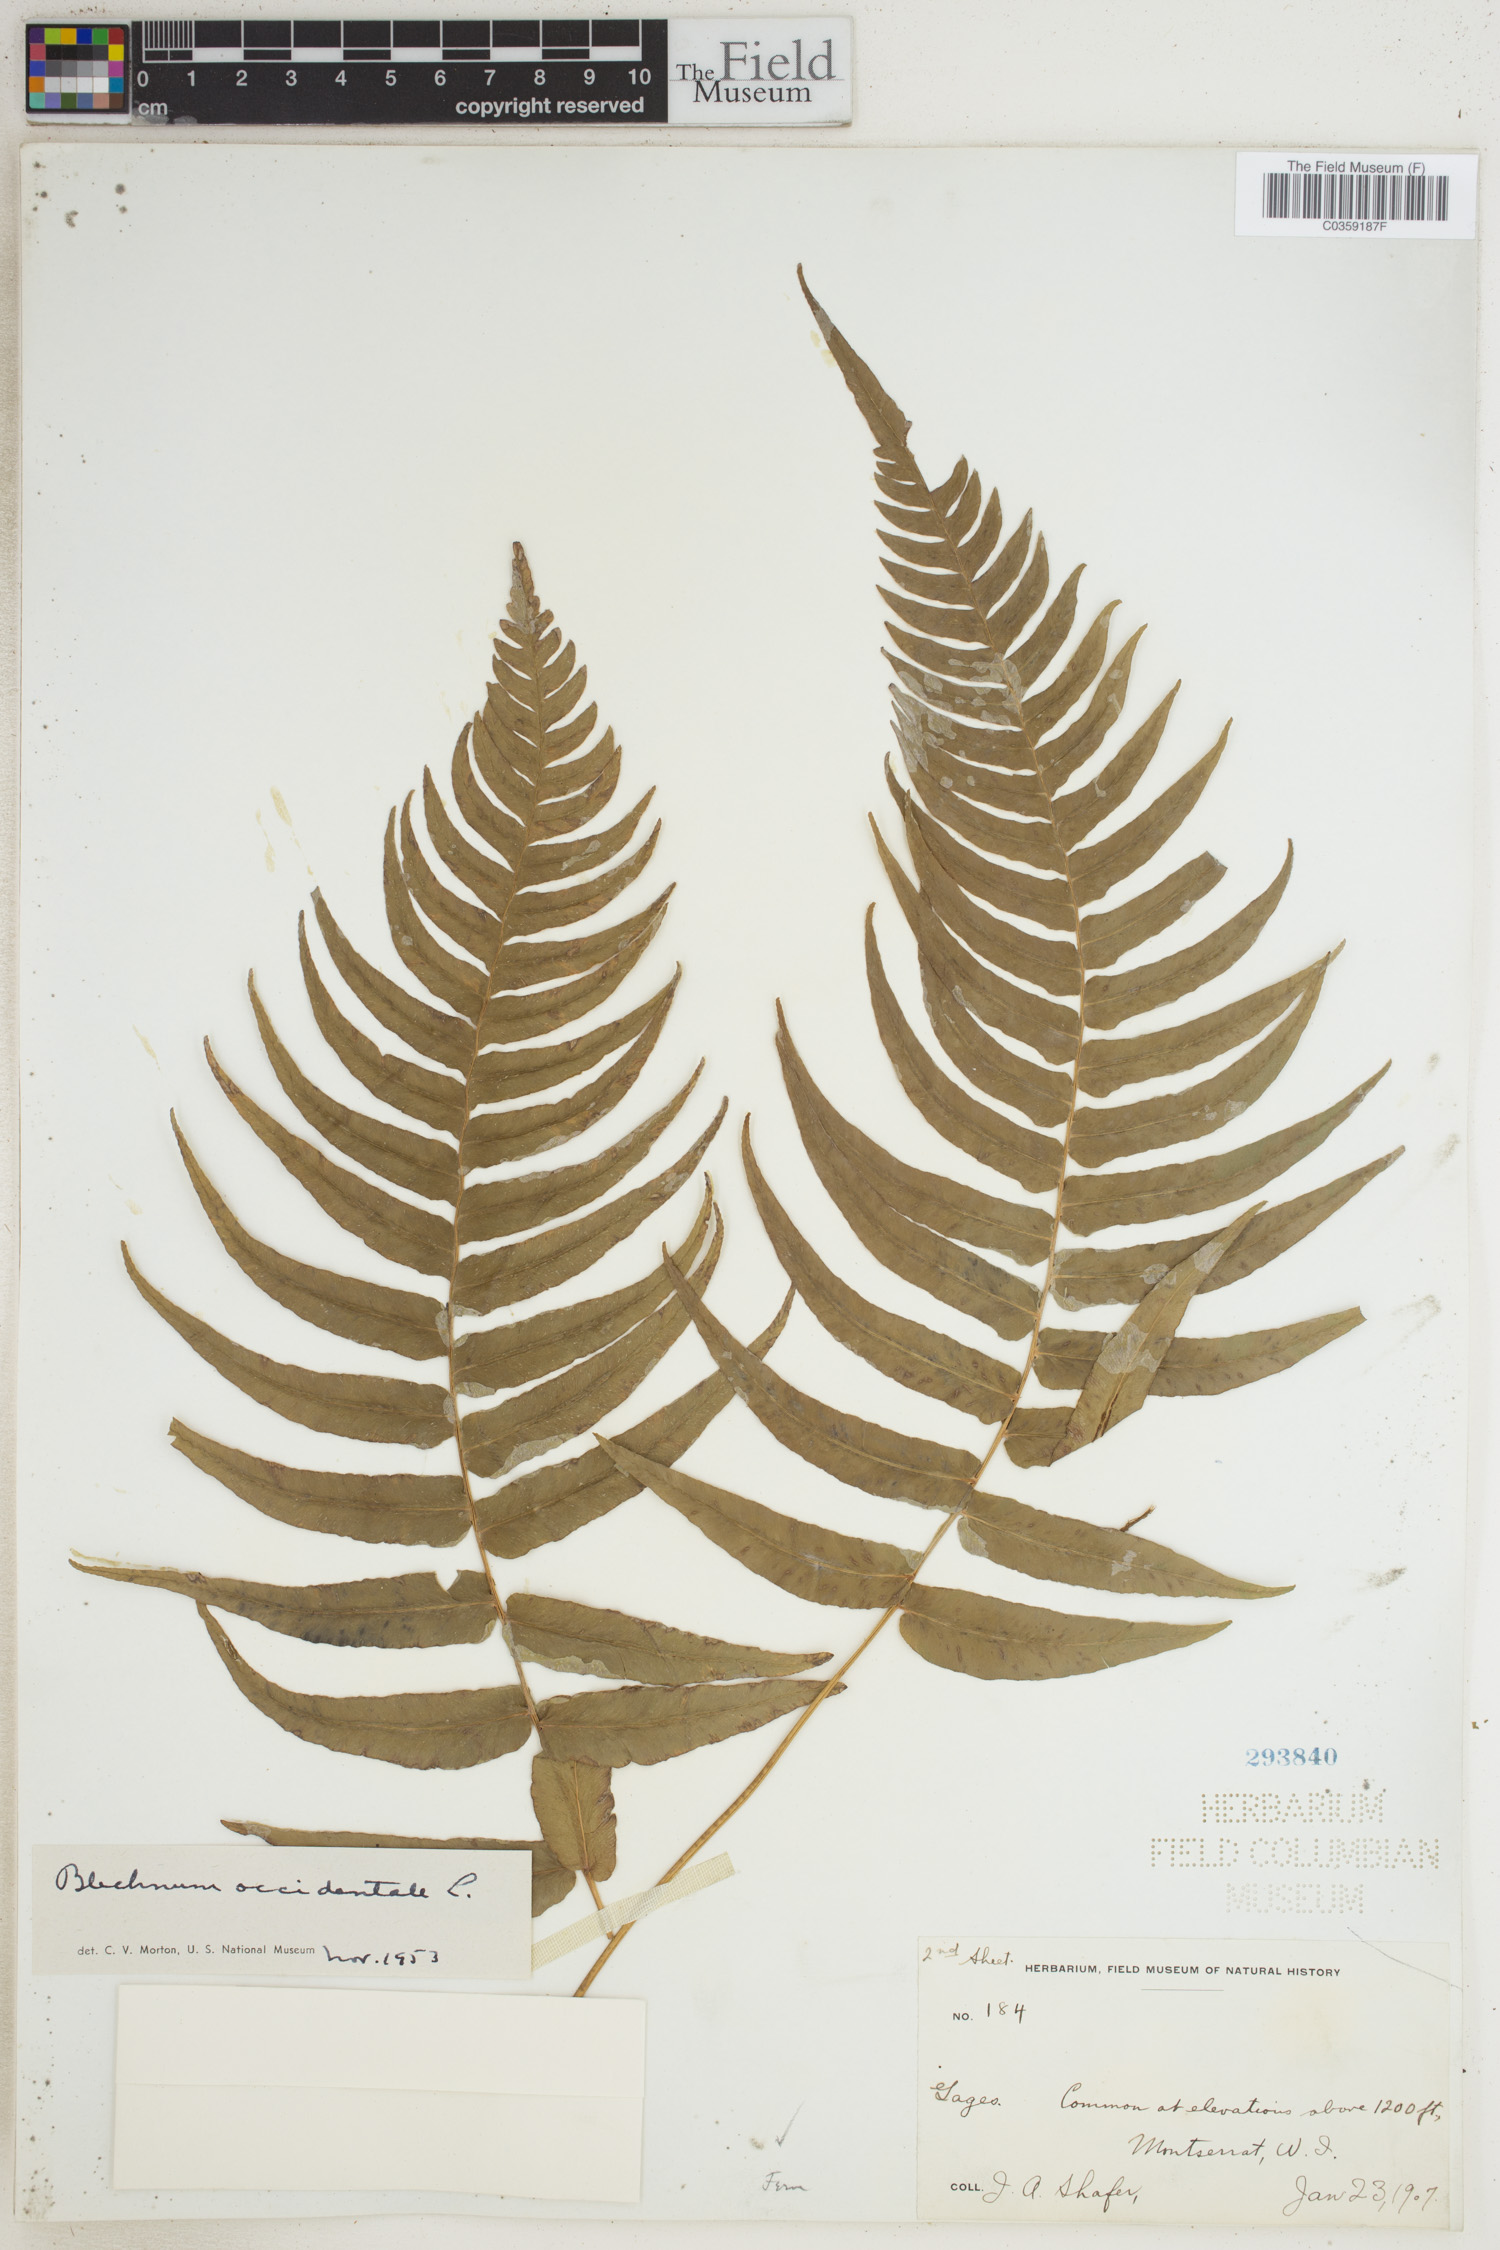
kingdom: Plantae
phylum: Tracheophyta
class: Polypodiopsida
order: Polypodiales
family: Blechnaceae
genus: Blechnum
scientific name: Blechnum occidentale
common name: Hammock fern
